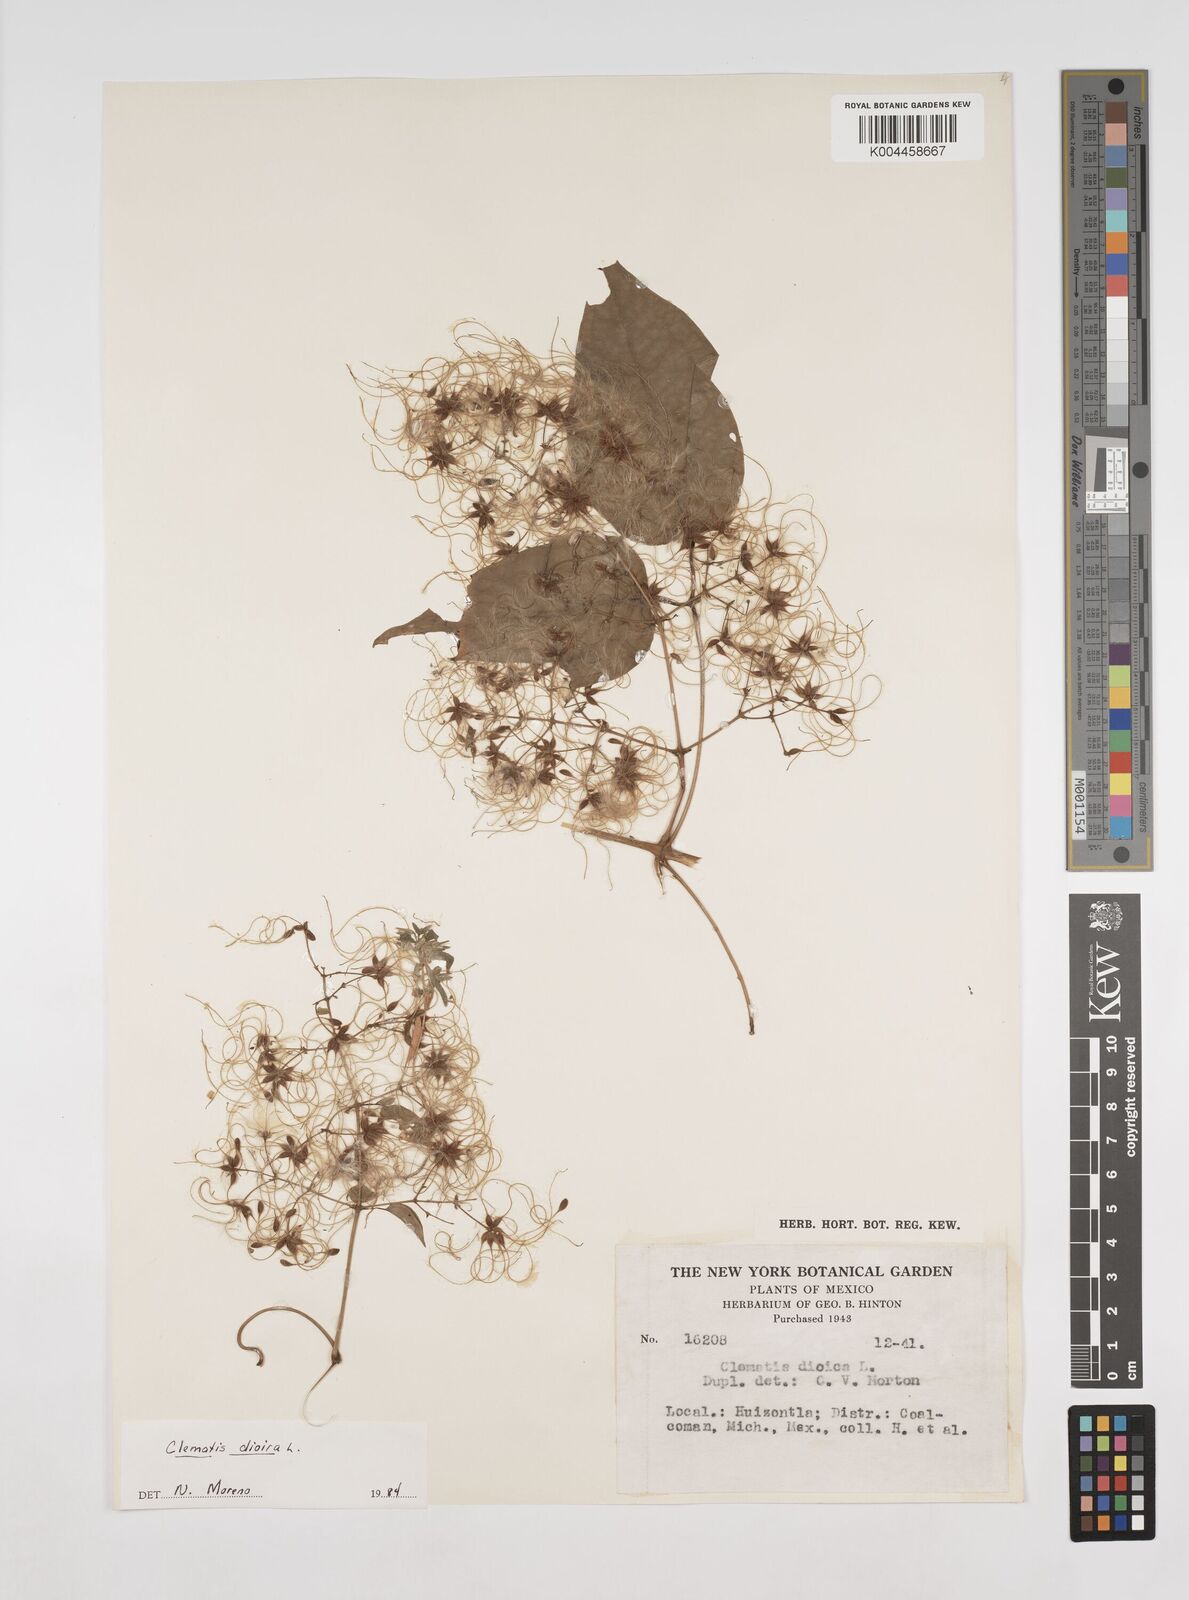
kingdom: Plantae
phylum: Tracheophyta
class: Magnoliopsida
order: Ranunculales
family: Ranunculaceae
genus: Clematis
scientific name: Clematis dioica
